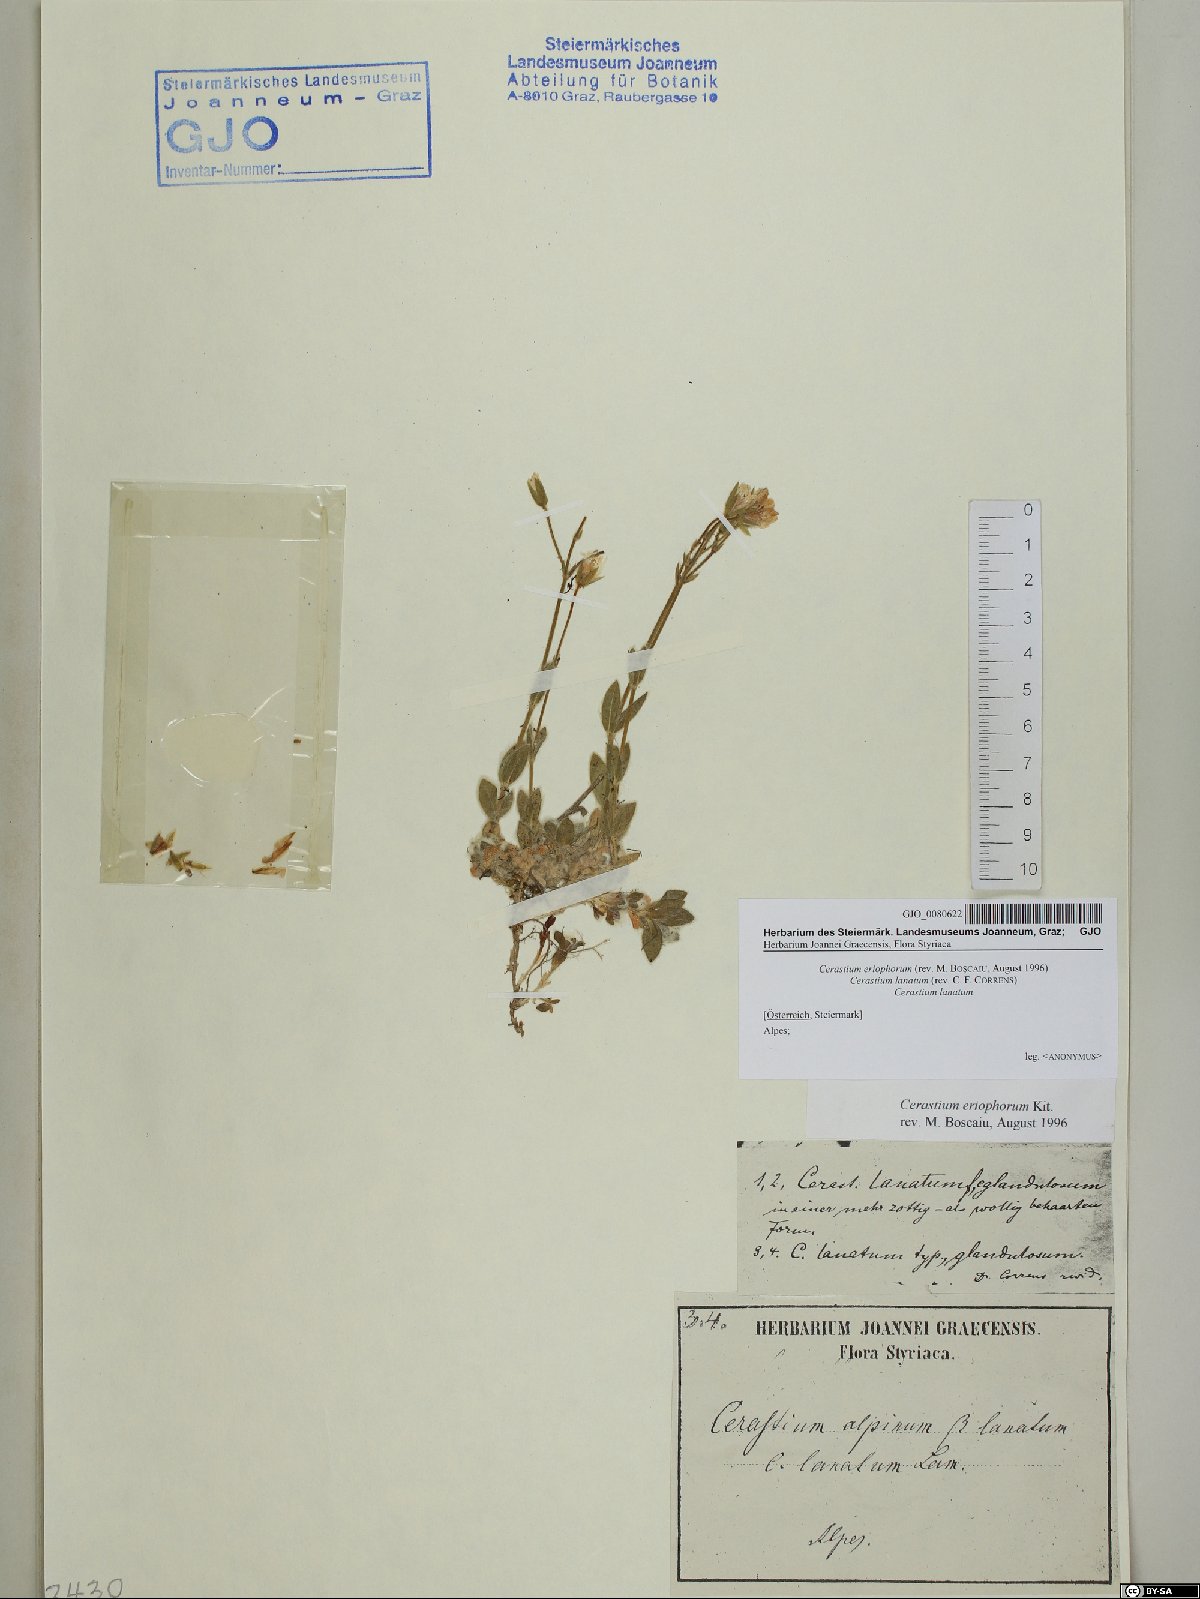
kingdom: Plantae
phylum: Tracheophyta
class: Magnoliopsida
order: Caryophyllales
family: Caryophyllaceae
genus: Cerastium
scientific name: Cerastium eriophorum
